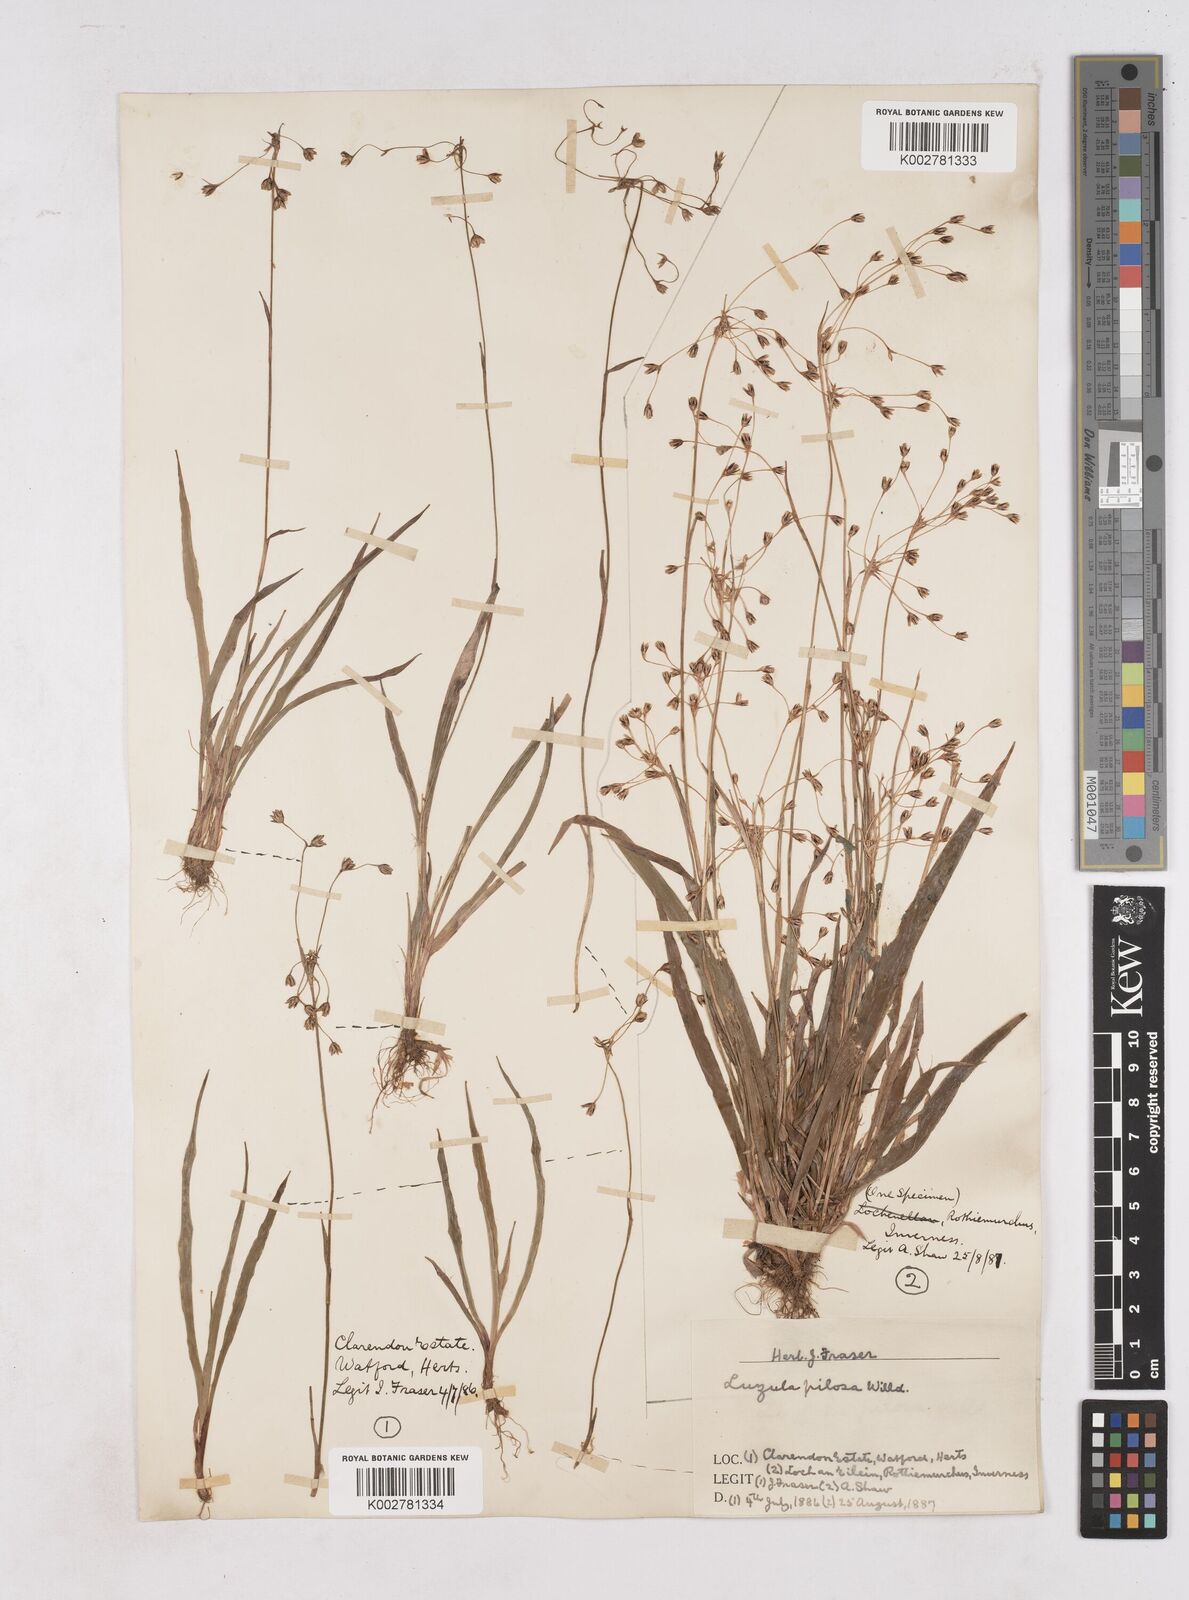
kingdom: Plantae
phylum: Tracheophyta
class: Liliopsida
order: Poales
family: Juncaceae
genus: Luzula
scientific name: Luzula pilosa
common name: Hairy wood-rush
